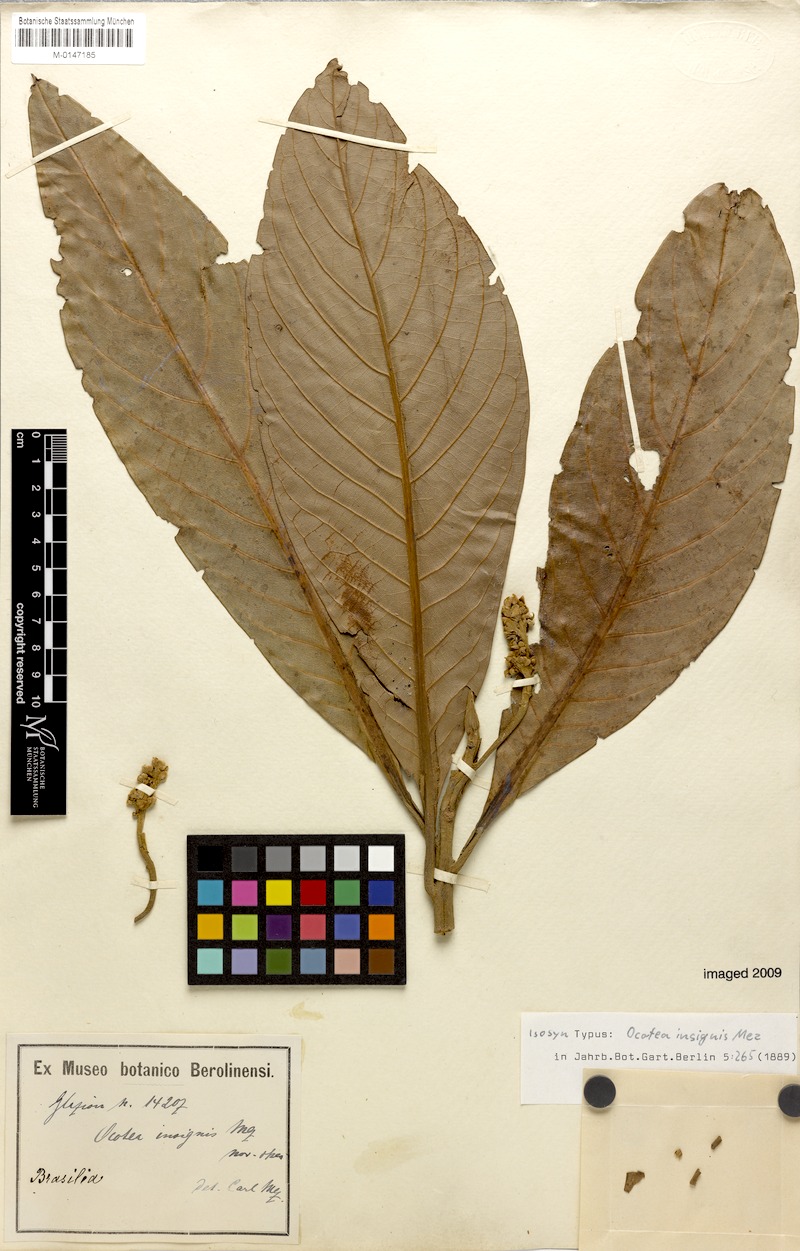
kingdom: Plantae
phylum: Tracheophyta
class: Magnoliopsida
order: Laurales
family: Lauraceae
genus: Ocotea
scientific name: Ocotea insignis
